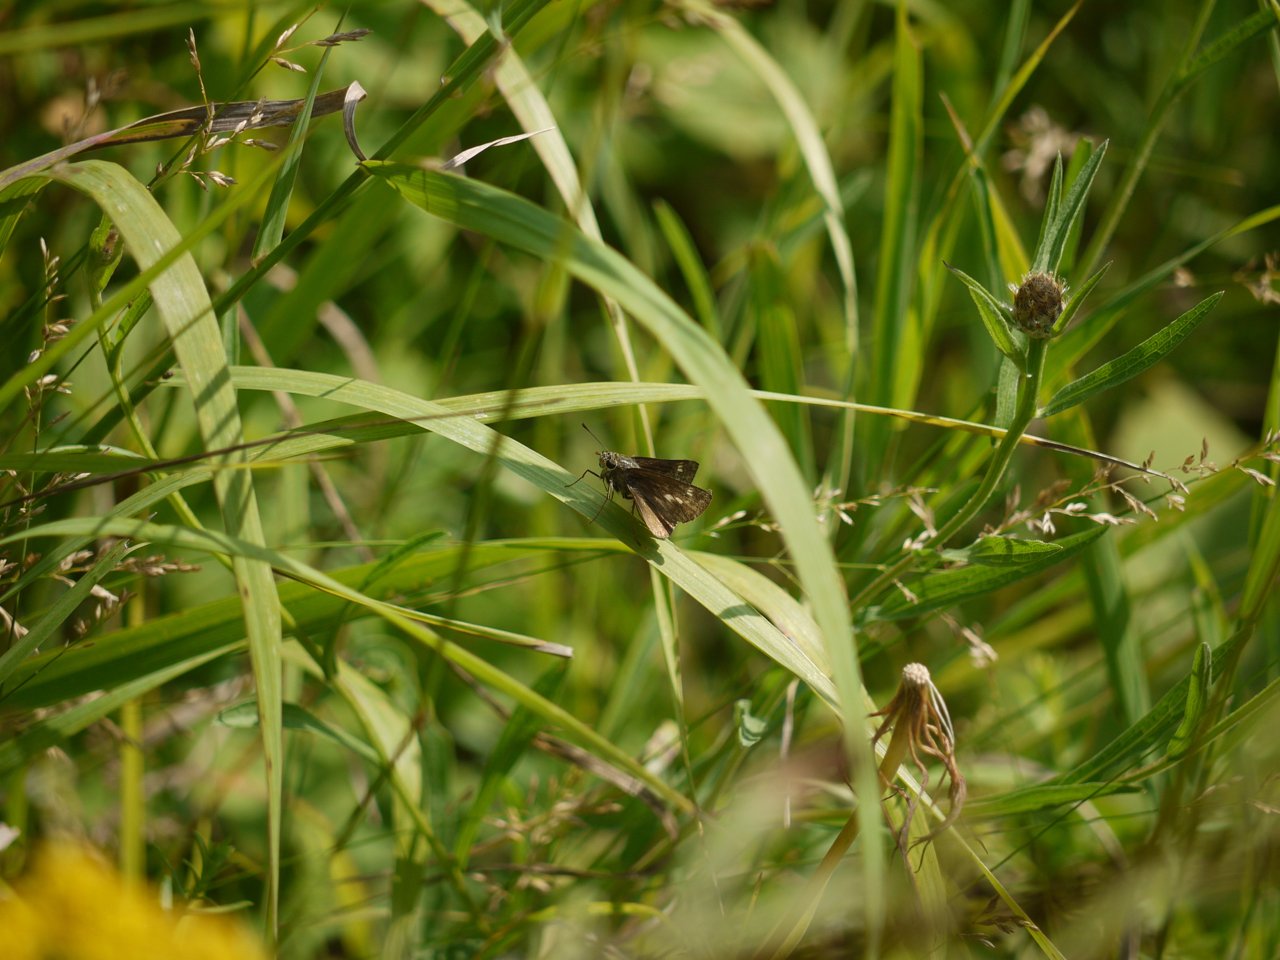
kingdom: Animalia
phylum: Arthropoda
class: Insecta
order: Lepidoptera
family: Hesperiidae
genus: Polites
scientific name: Polites egeremet
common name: Northern Broken-Dash
